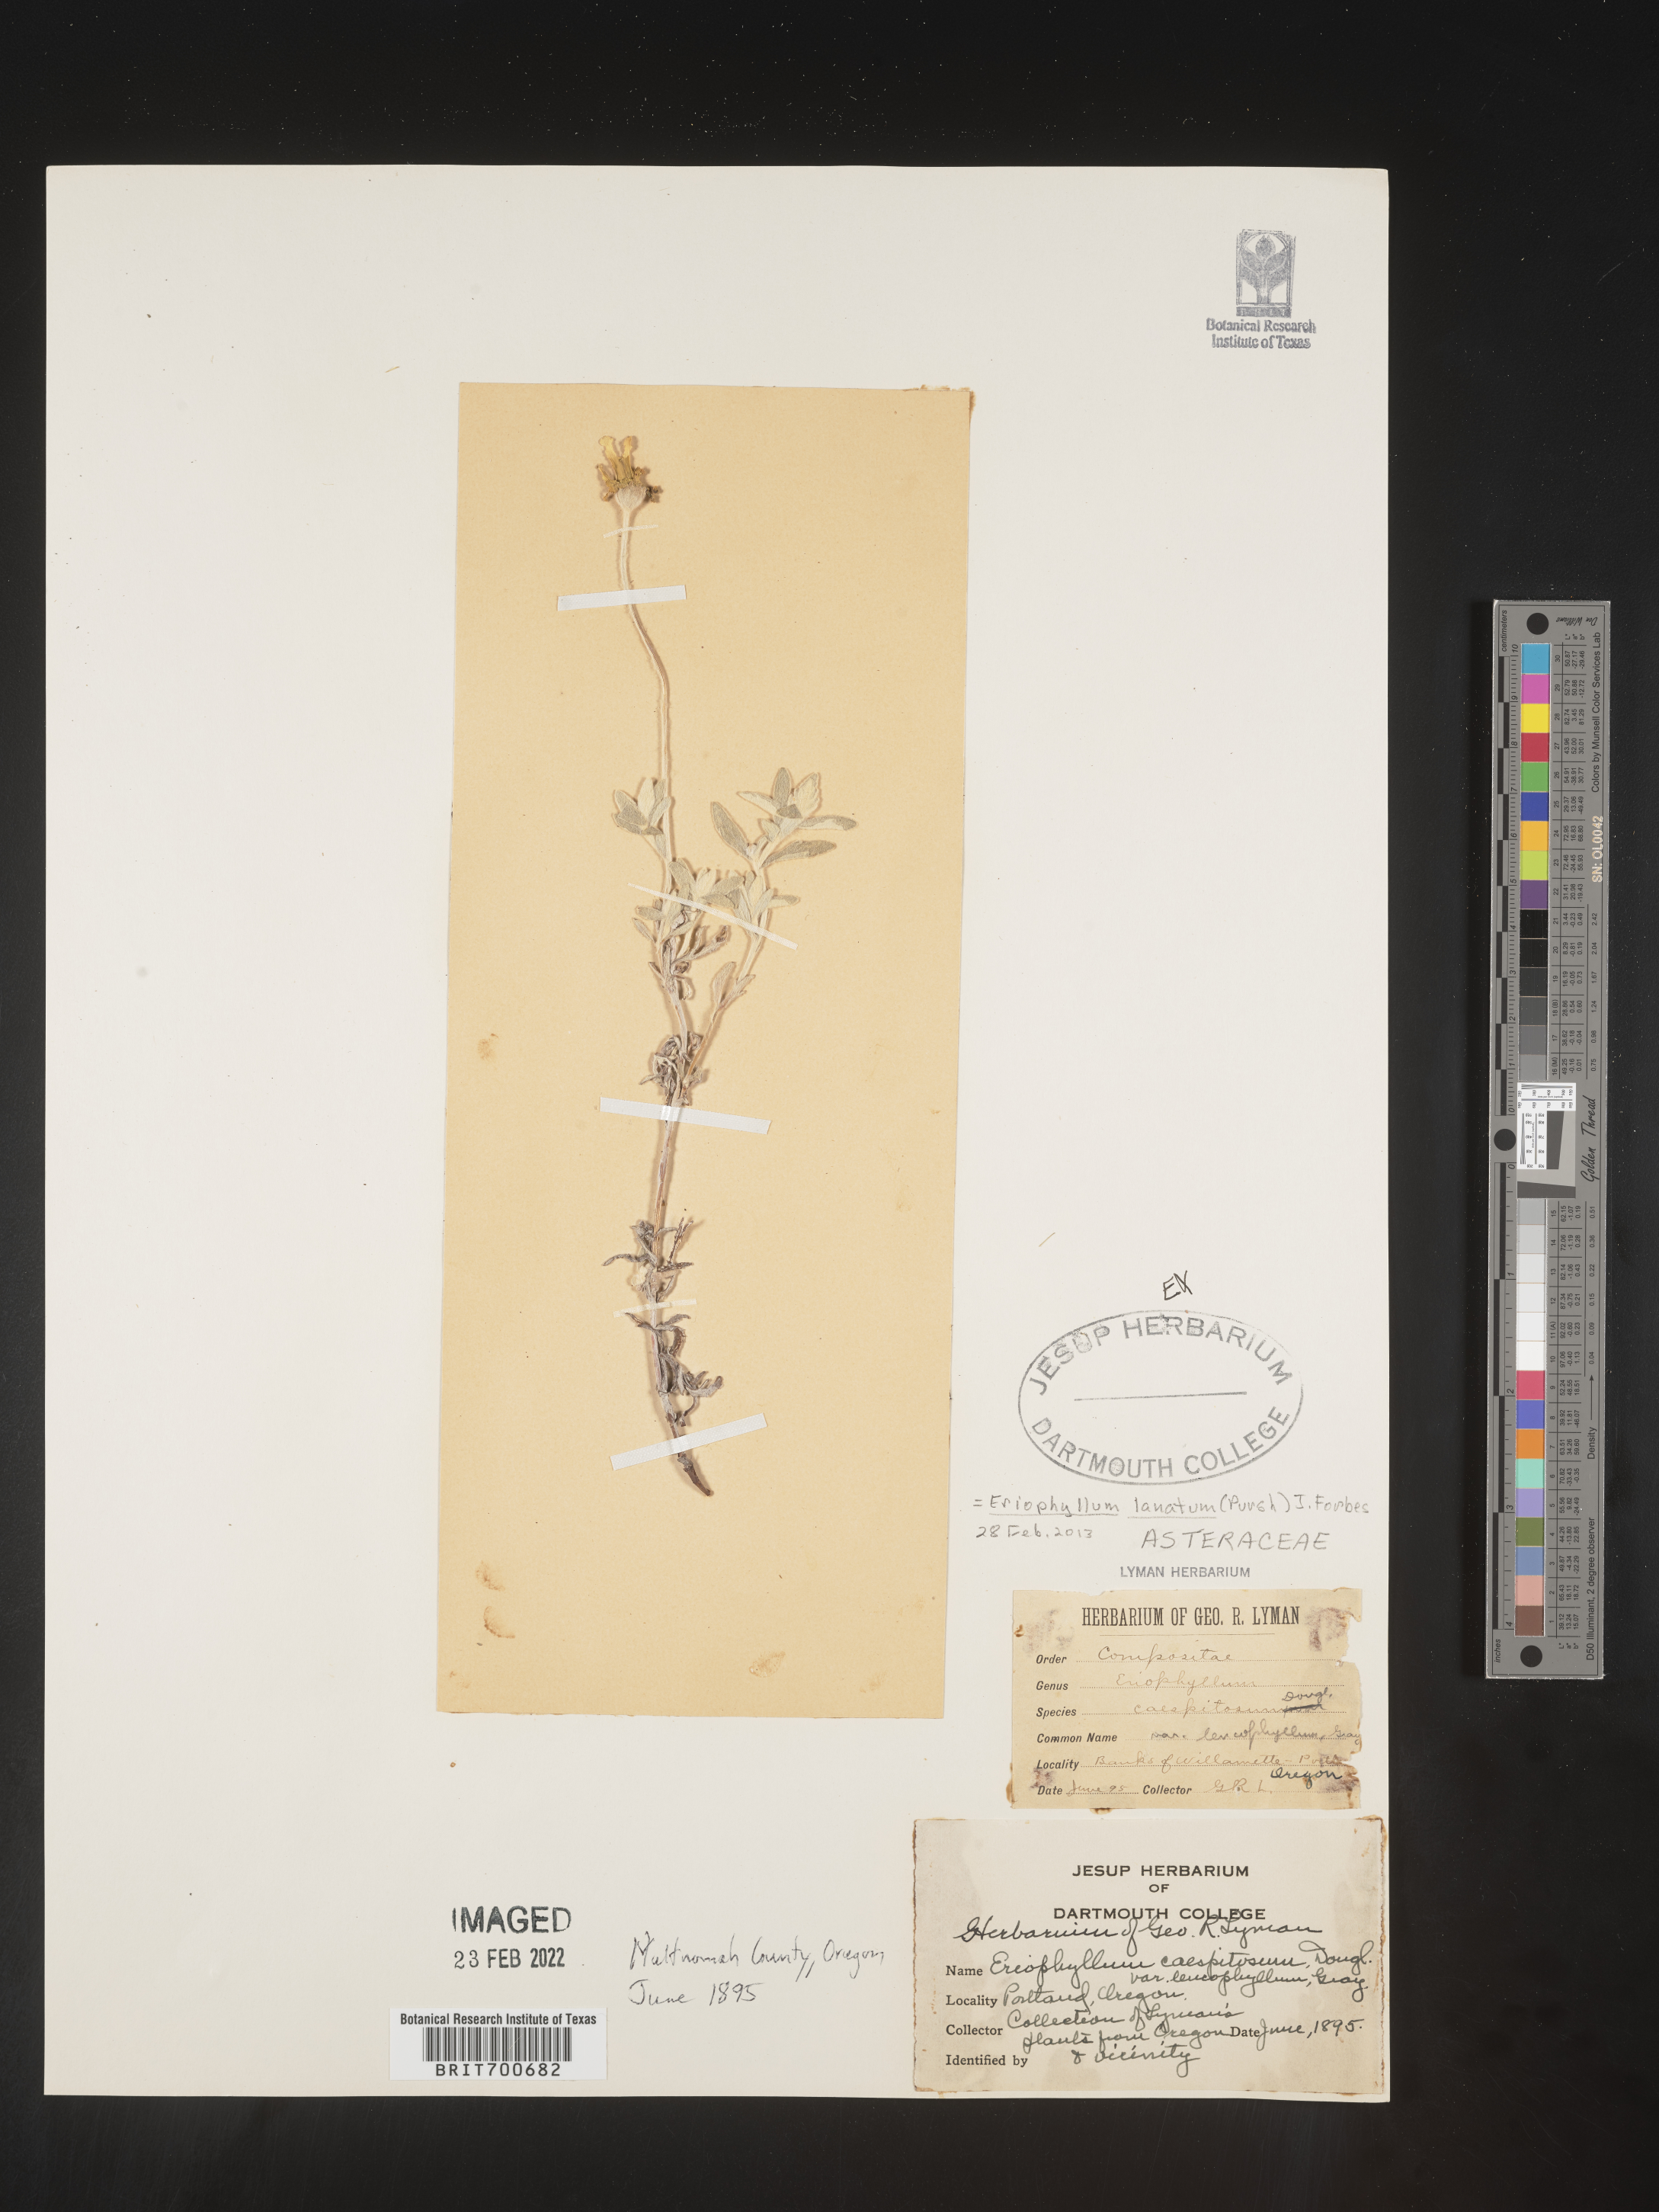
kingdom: Plantae
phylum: Tracheophyta
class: Magnoliopsida
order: Asterales
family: Asteraceae
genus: Eriophyllum
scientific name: Eriophyllum lanatum
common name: Common woolly-sunflower
